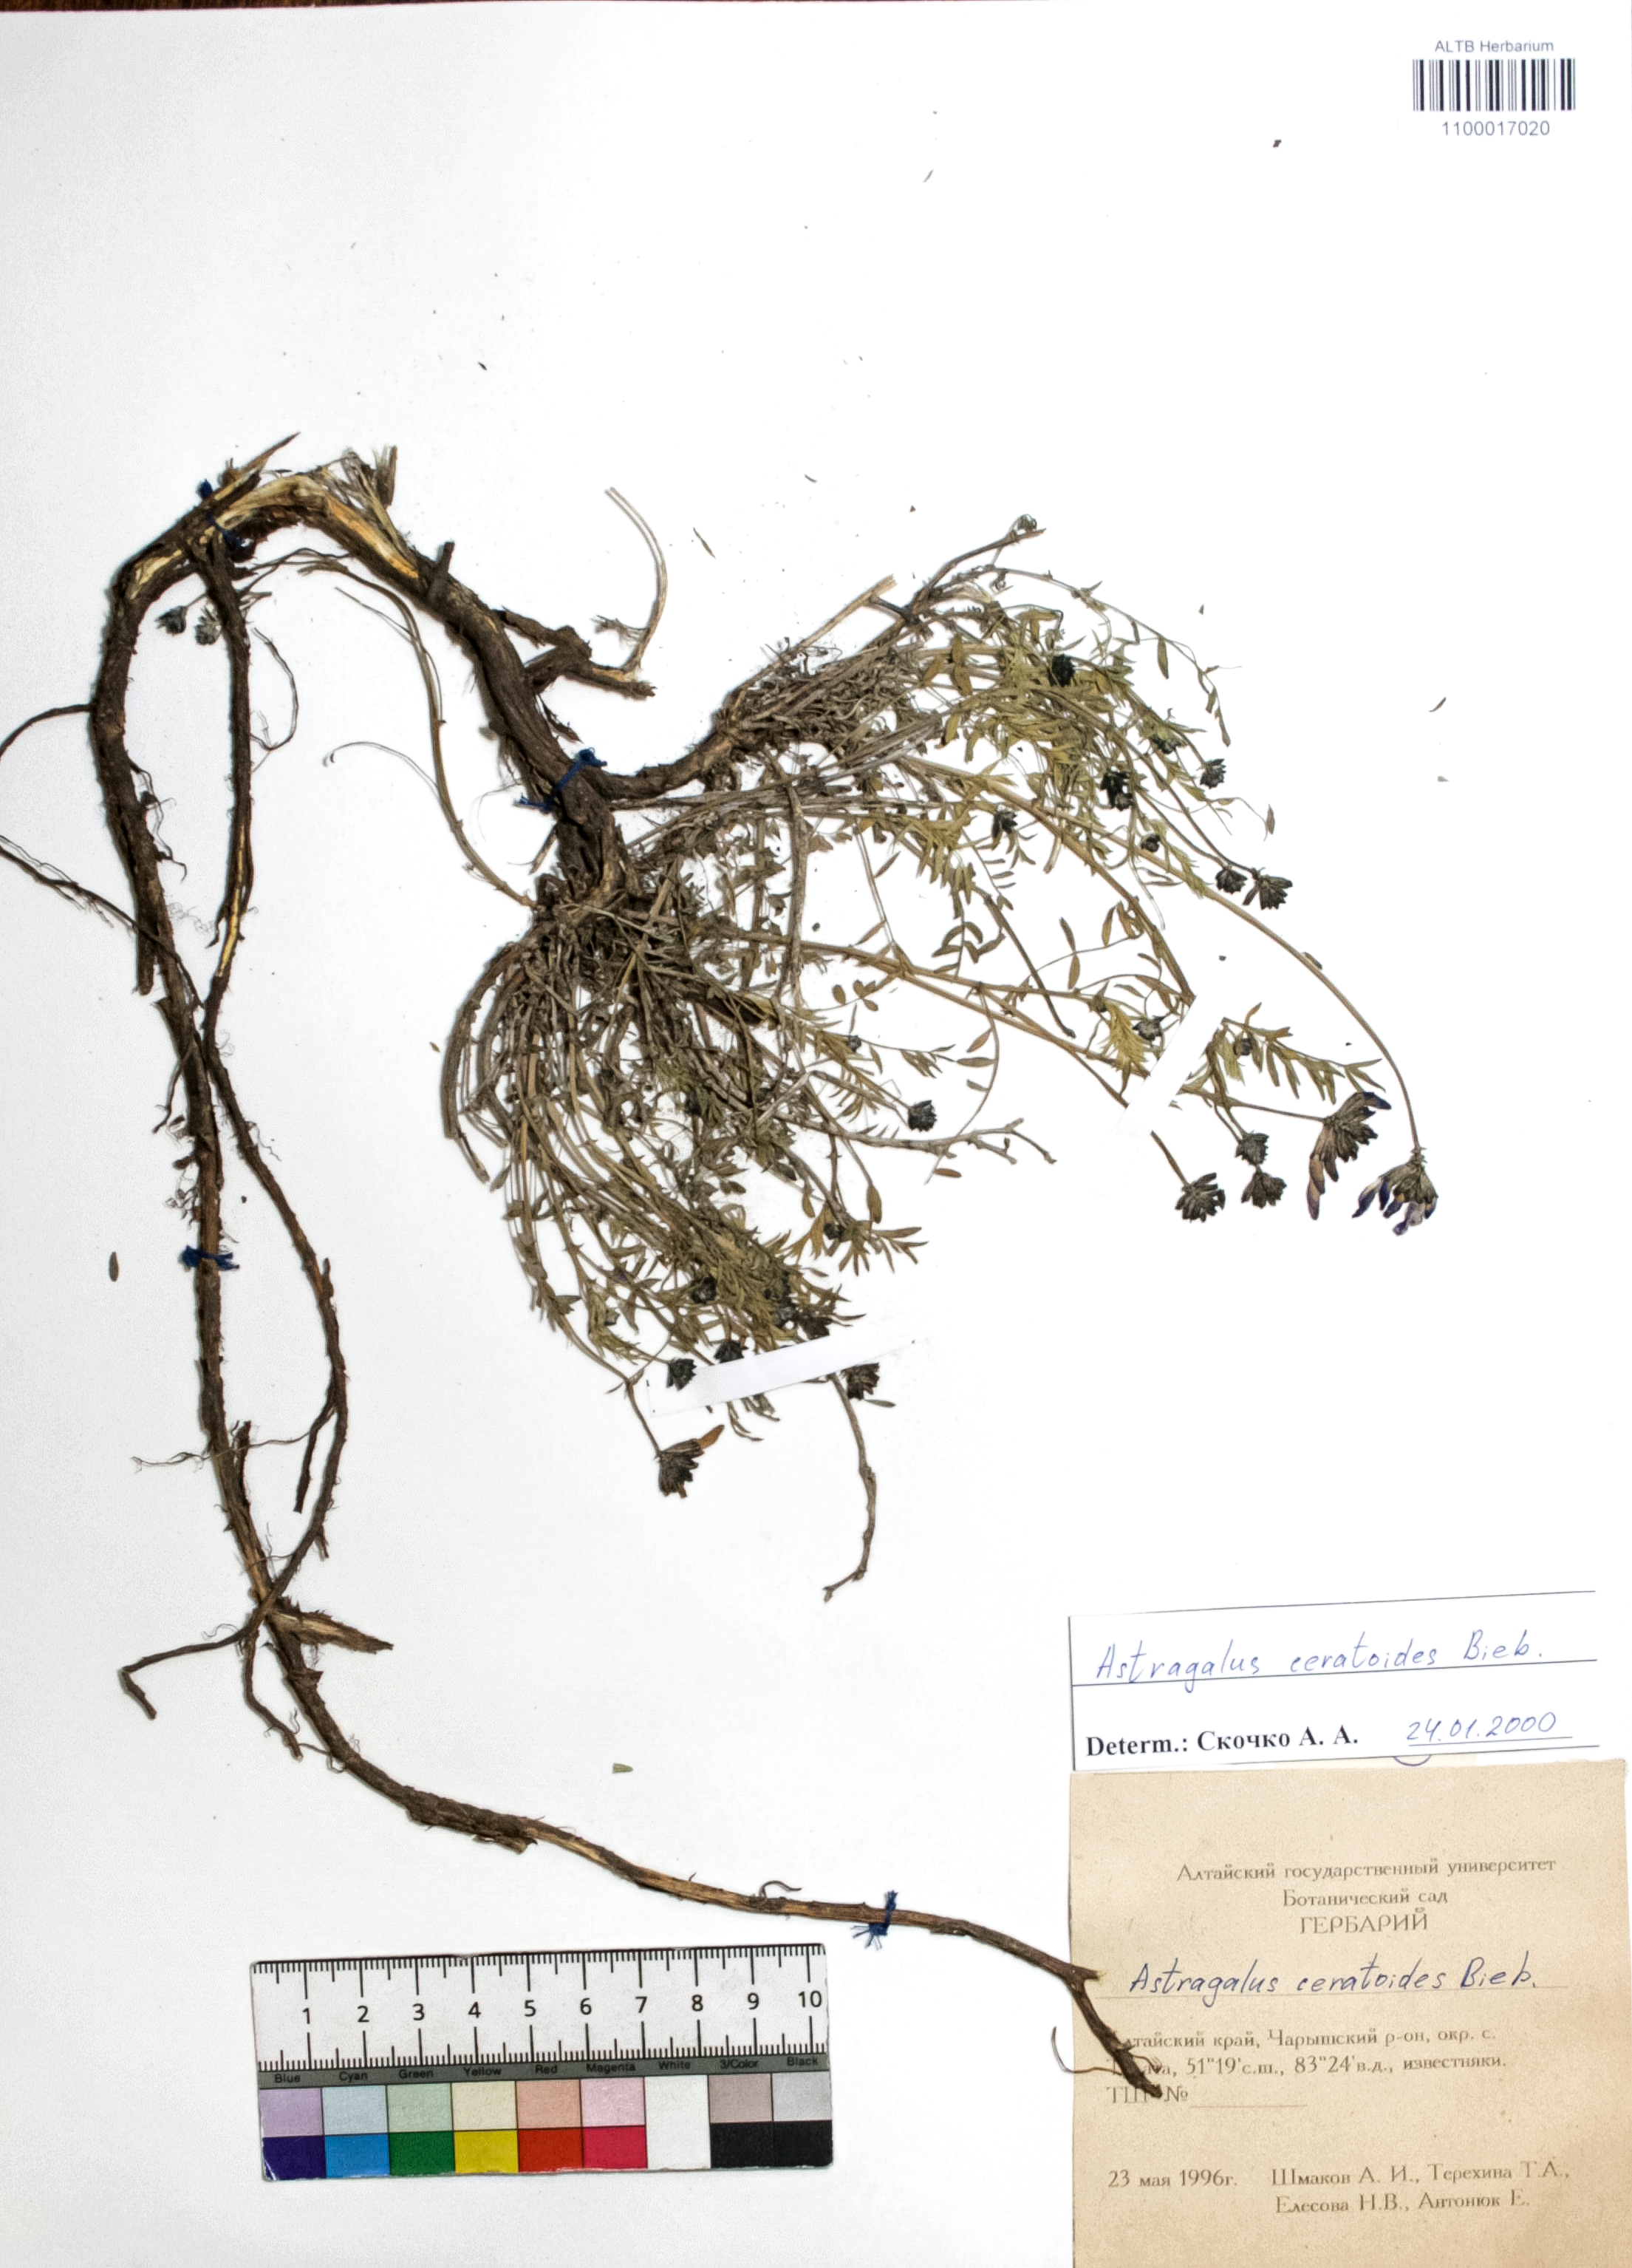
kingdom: Plantae
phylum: Tracheophyta
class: Magnoliopsida
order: Fabales
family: Fabaceae
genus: Astragalus
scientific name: Astragalus ceratoides
